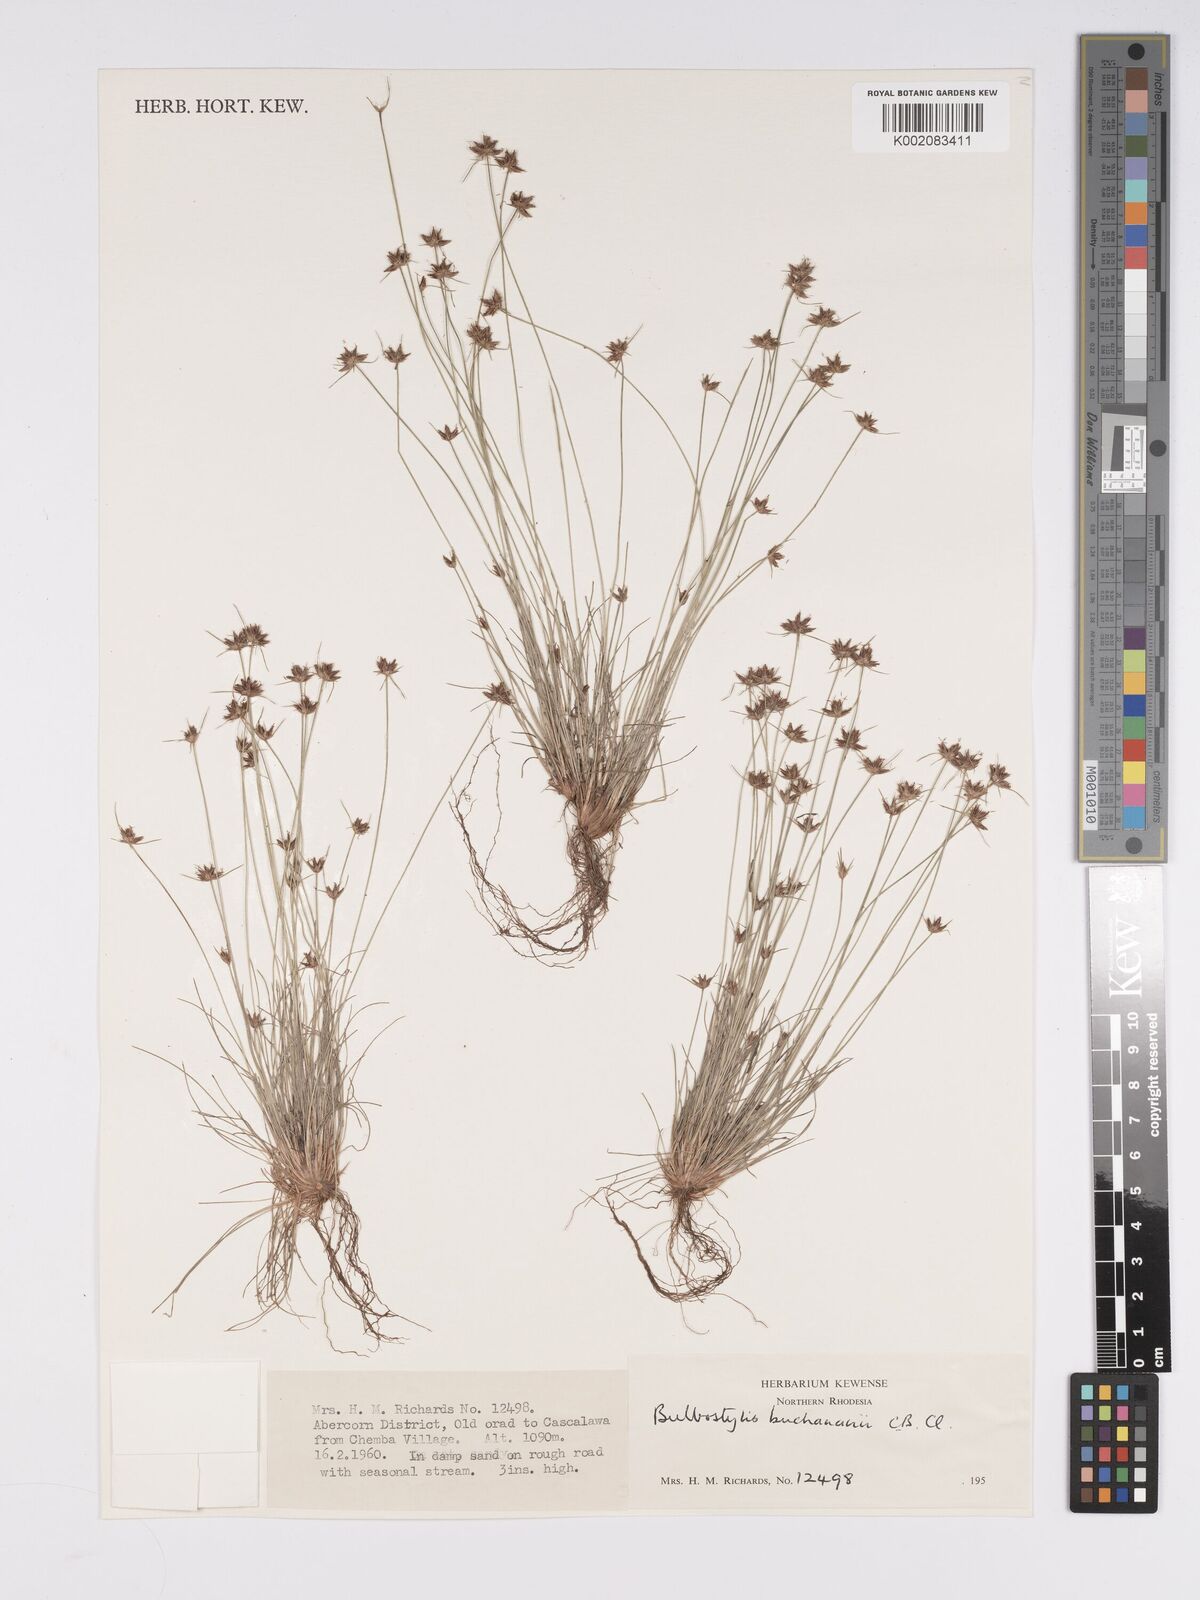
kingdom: Plantae
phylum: Tracheophyta
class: Liliopsida
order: Poales
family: Cyperaceae
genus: Bulbostylis
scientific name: Bulbostylis buchananii
